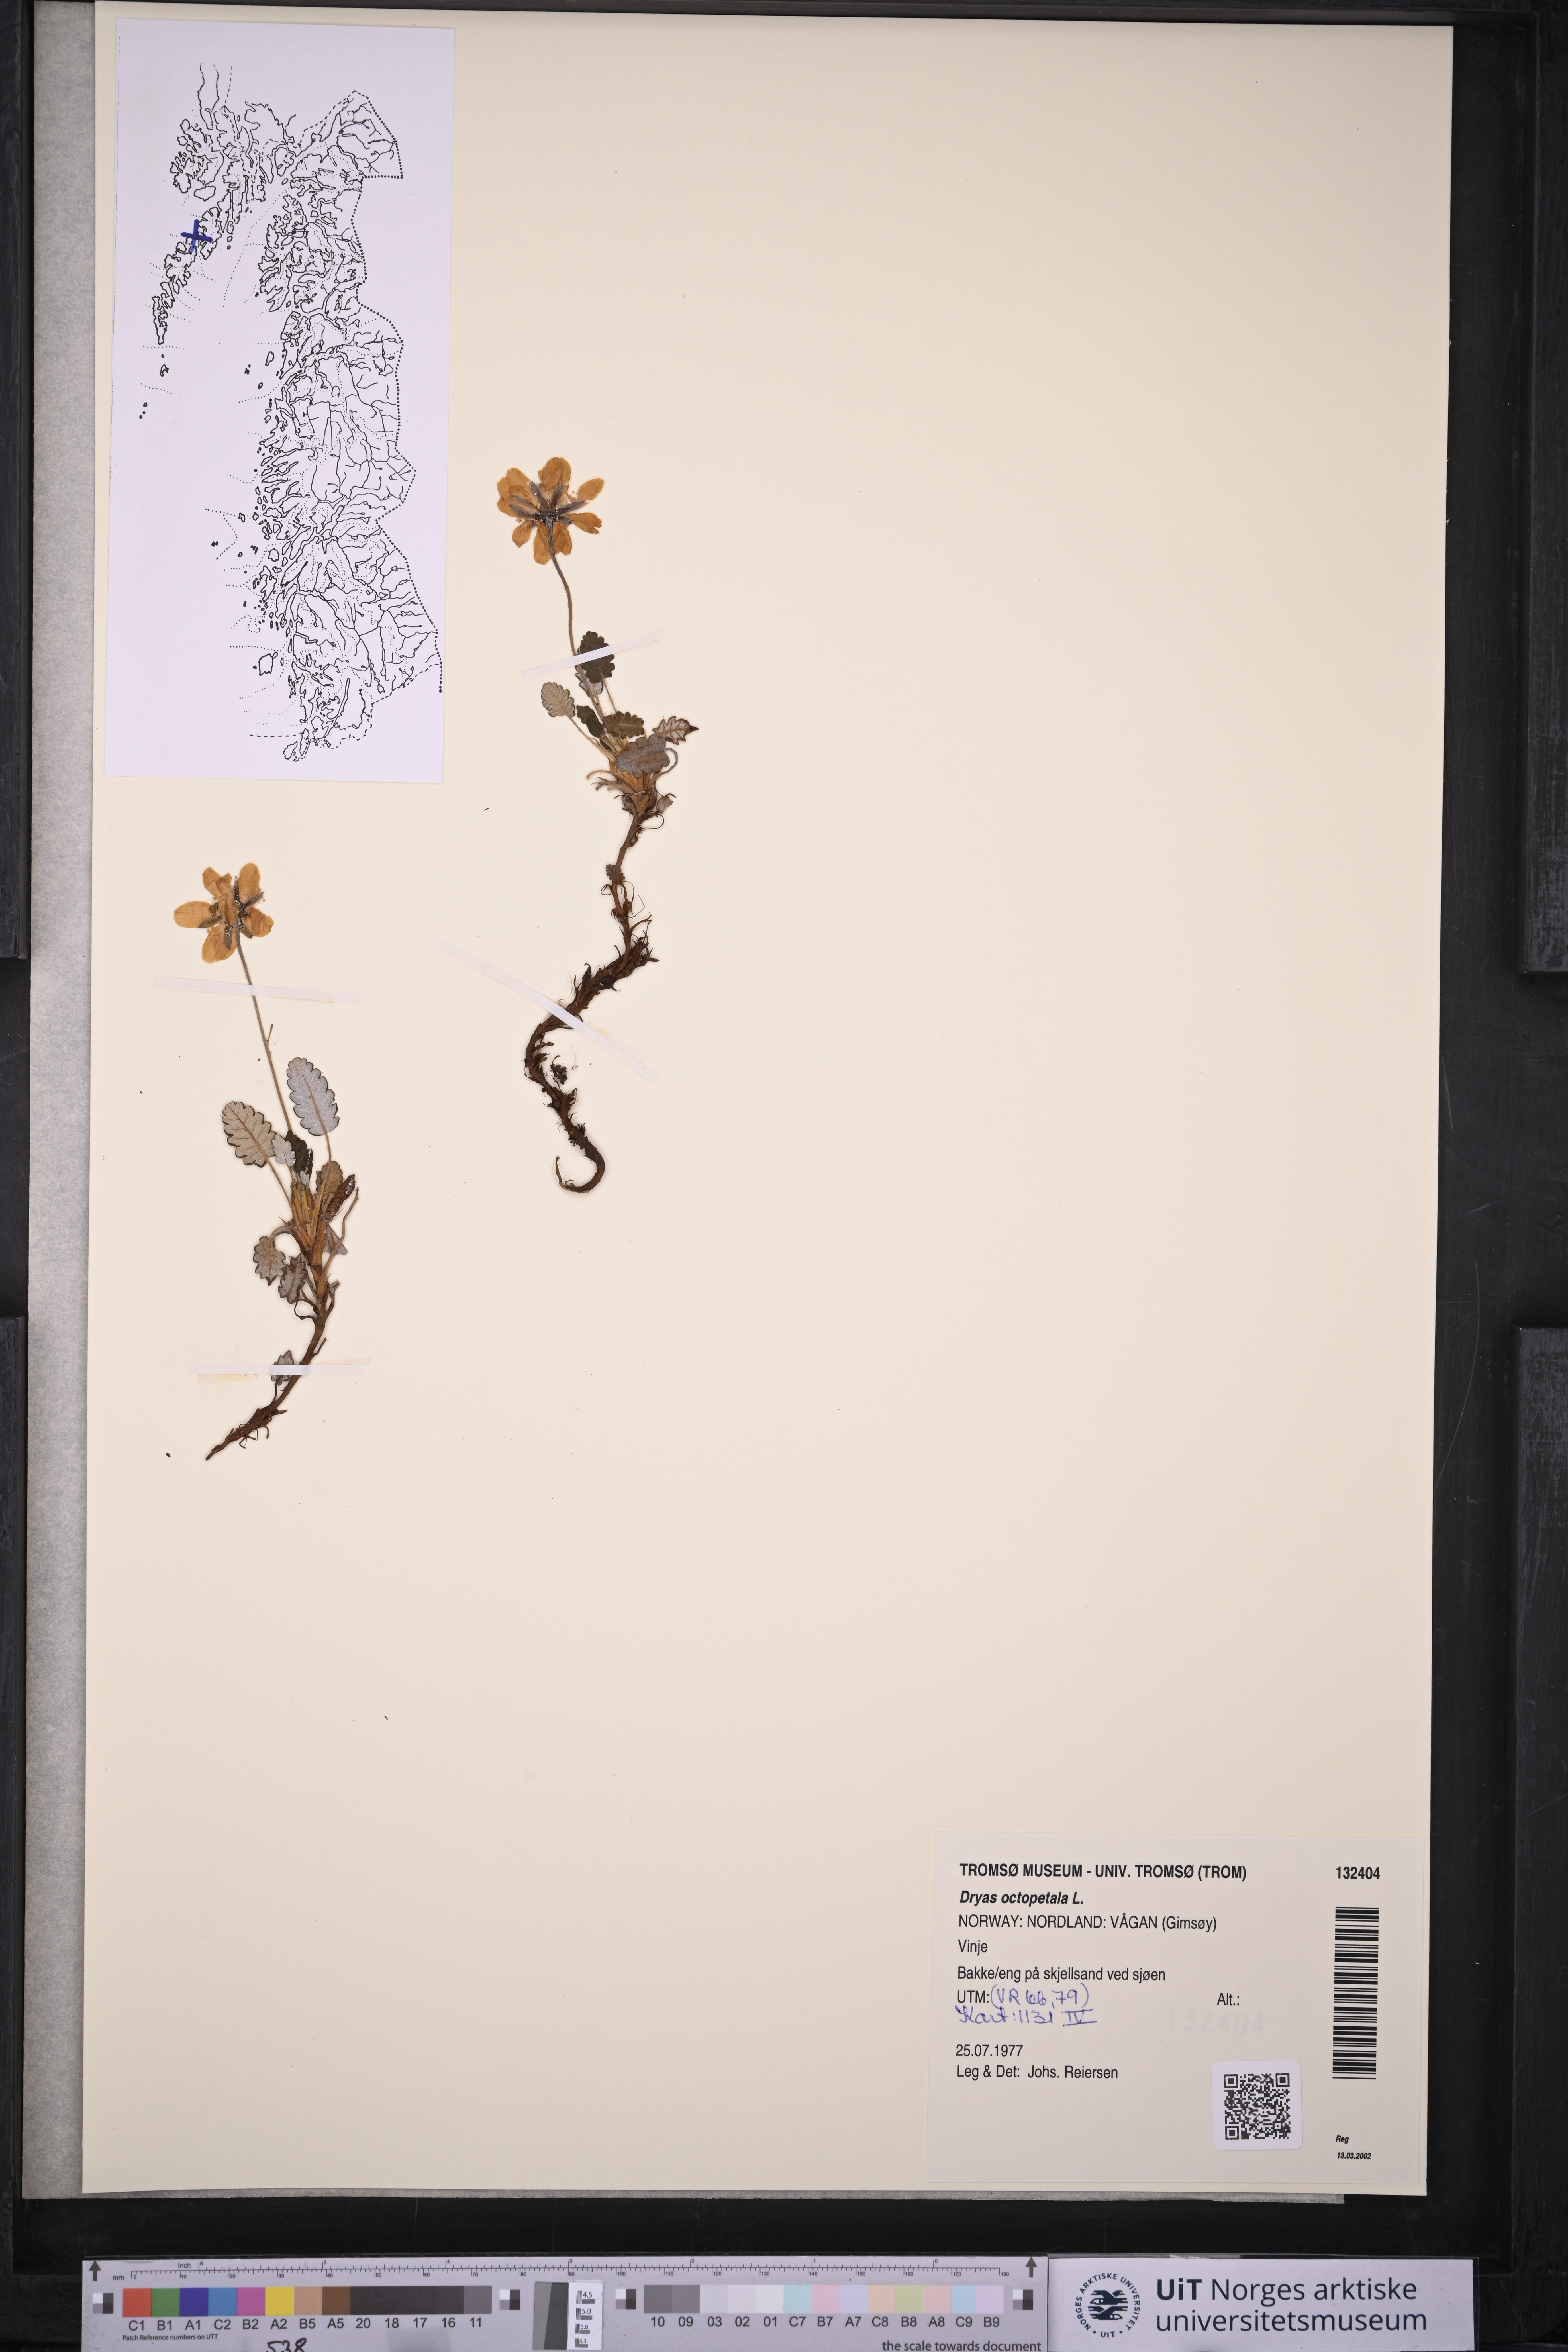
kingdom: Plantae
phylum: Tracheophyta
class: Magnoliopsida
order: Rosales
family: Rosaceae
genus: Dryas
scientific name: Dryas octopetala
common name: Eight-petal mountain-avens
